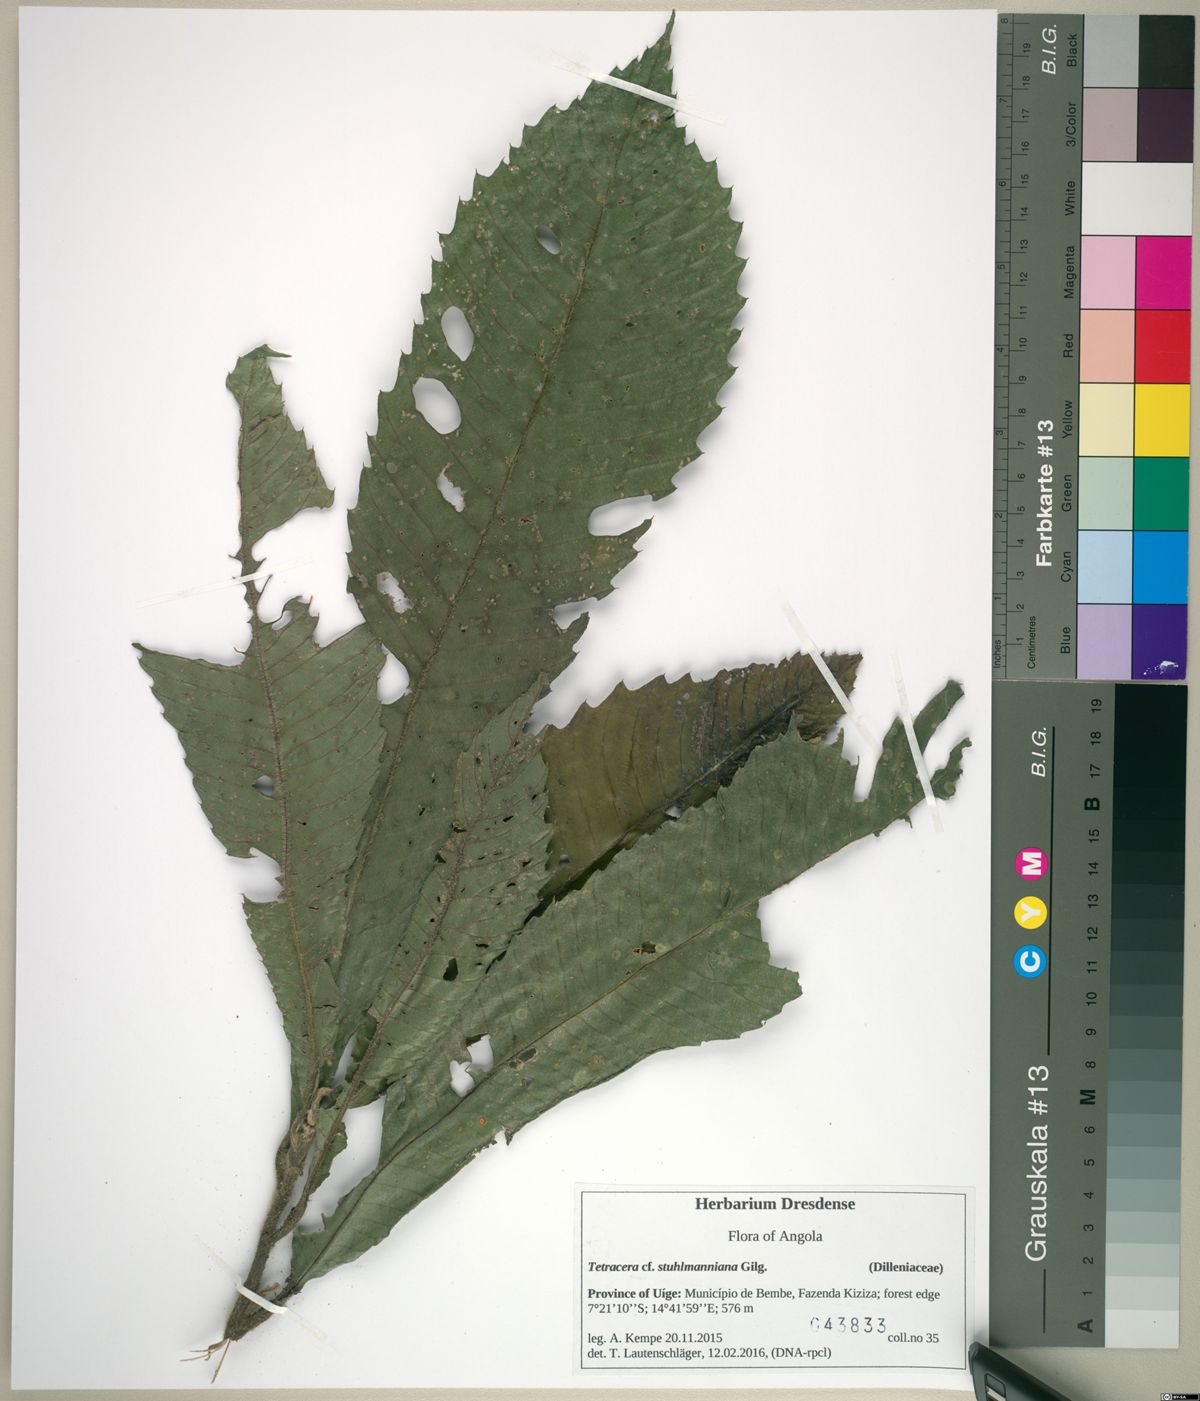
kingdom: Plantae
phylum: Tracheophyta
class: Magnoliopsida
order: Dilleniales
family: Dilleniaceae
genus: Tetracera
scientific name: Tetracera
